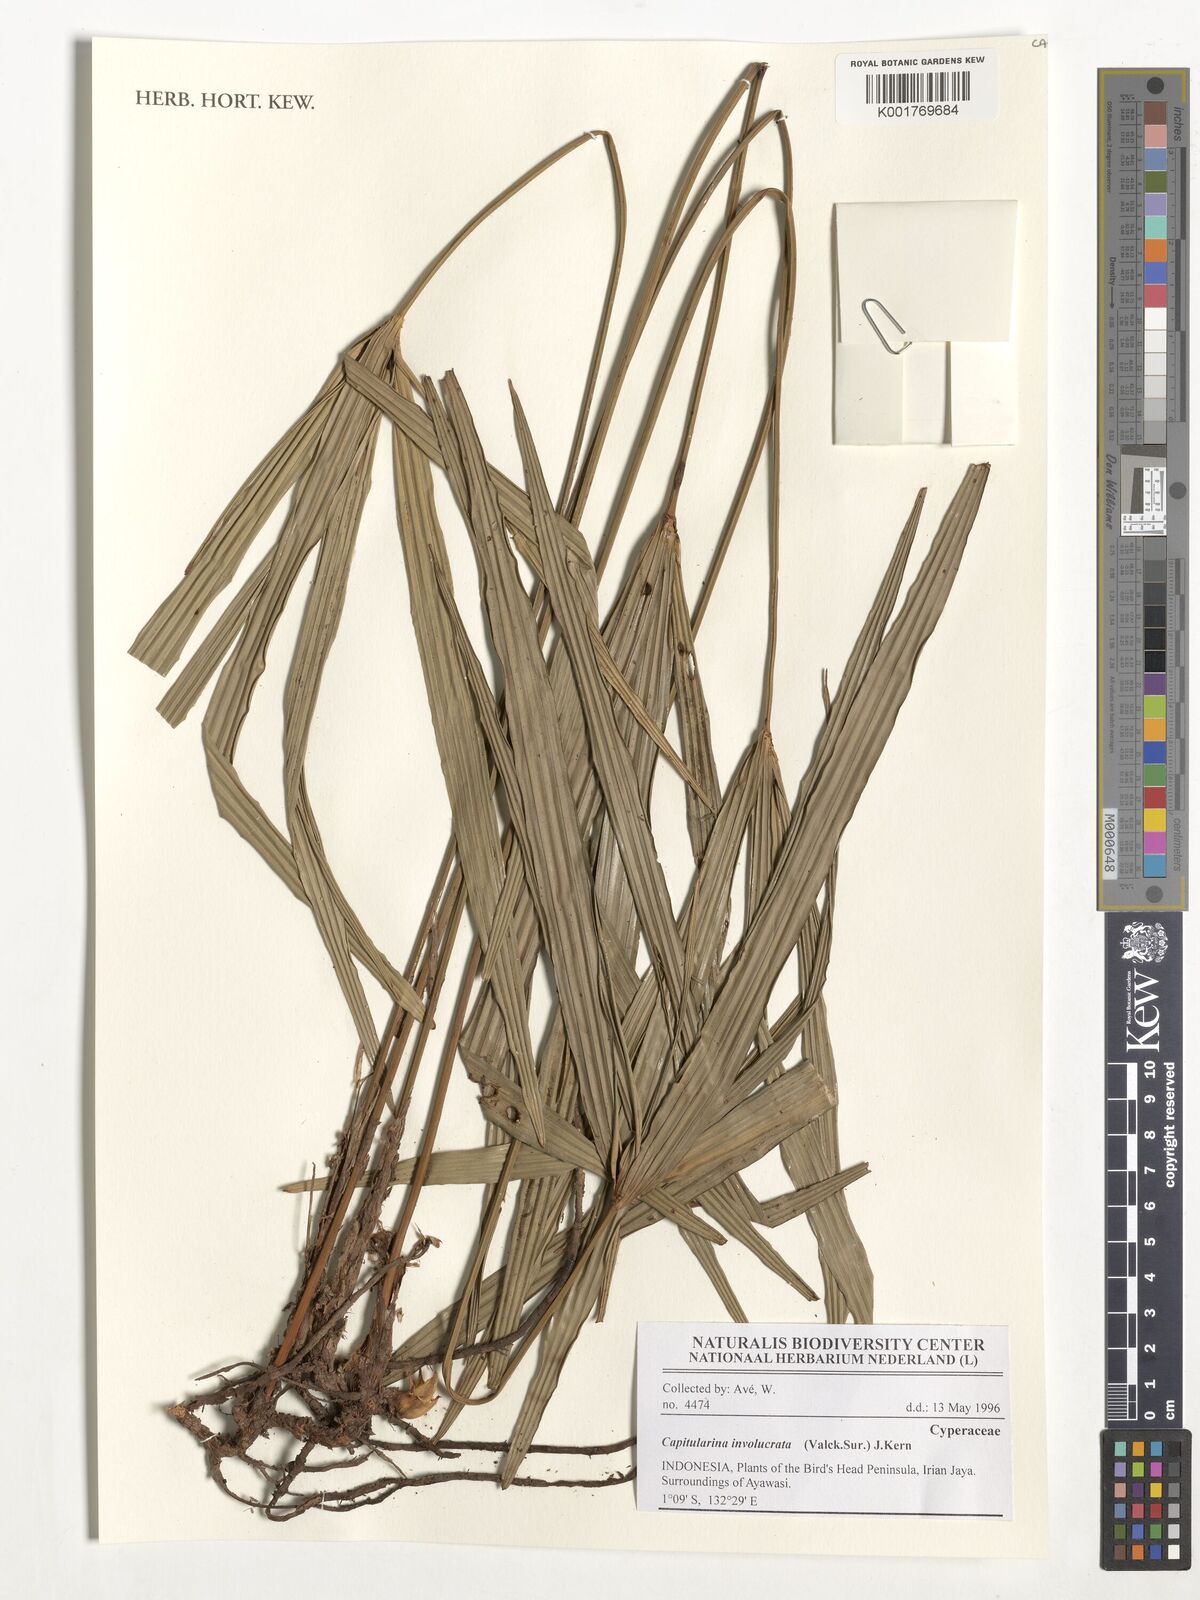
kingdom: Plantae
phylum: Tracheophyta
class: Liliopsida
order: Poales
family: Cyperaceae
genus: Capitularina
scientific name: Capitularina involucrata
